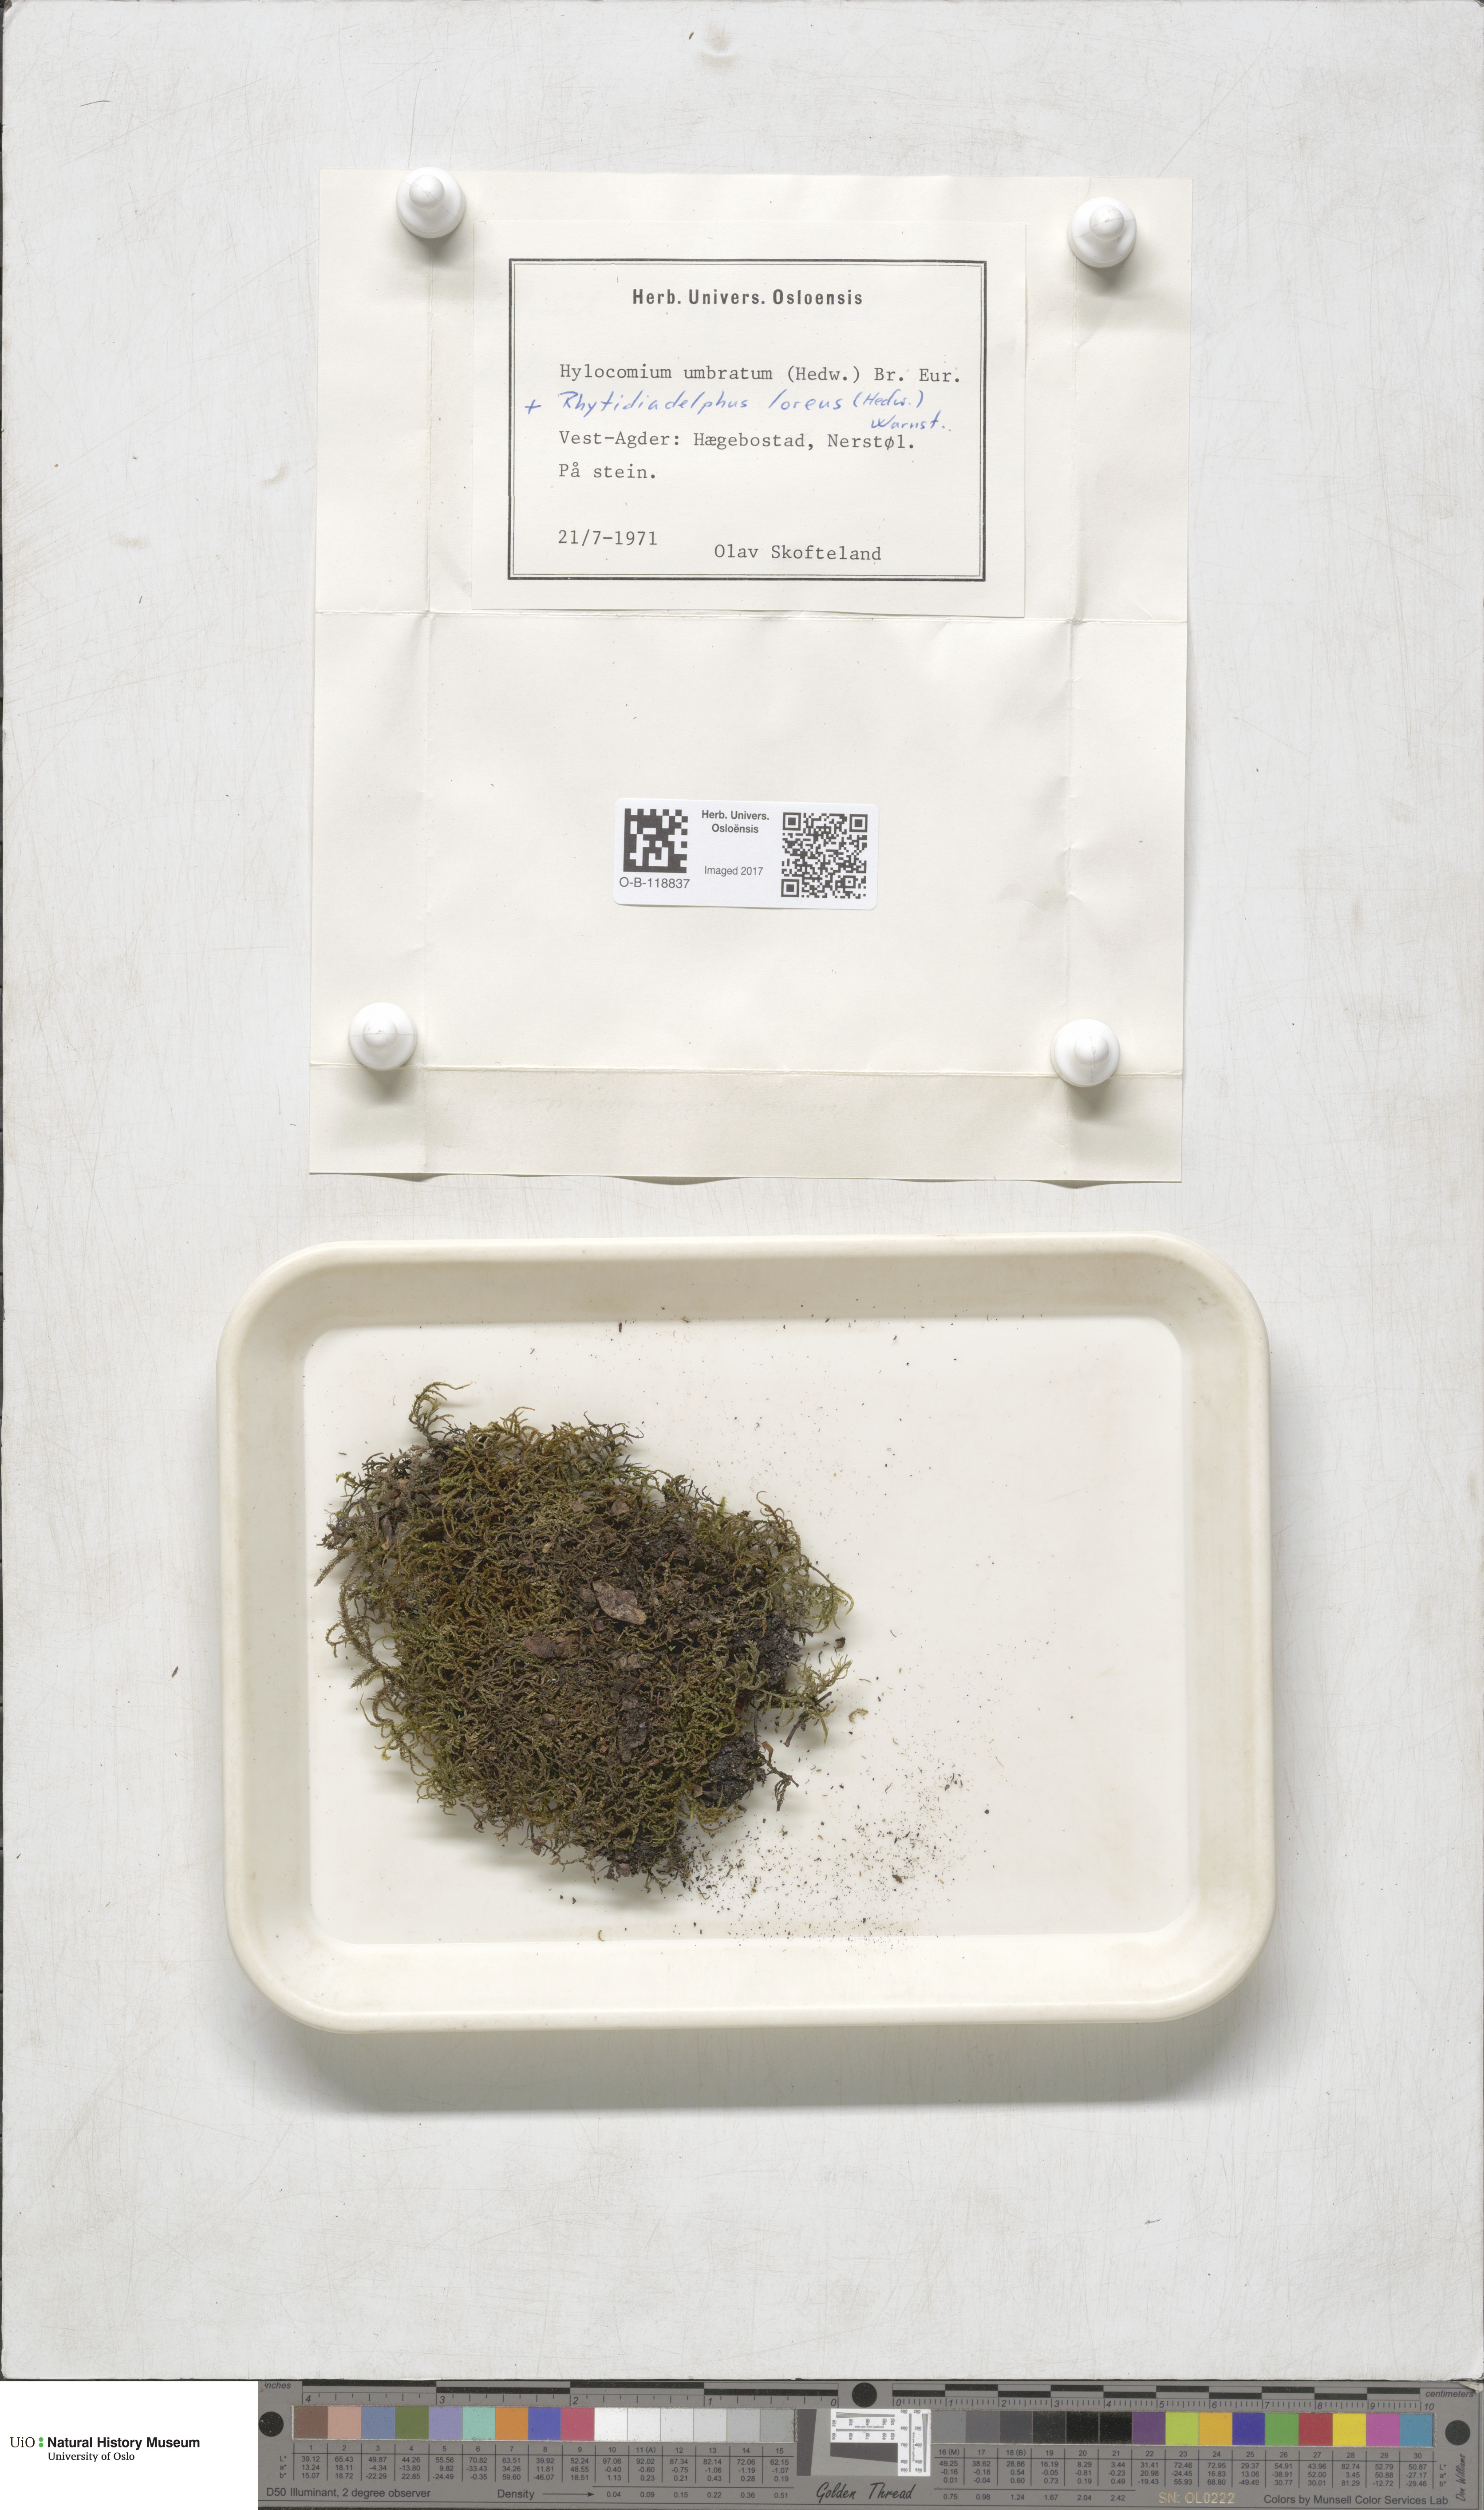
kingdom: Plantae
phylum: Bryophyta
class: Bryopsida
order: Hypnales
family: Hylocomiaceae
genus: Hylocomiastrum
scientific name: Hylocomiastrum umbratum
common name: Shaded woods moss
